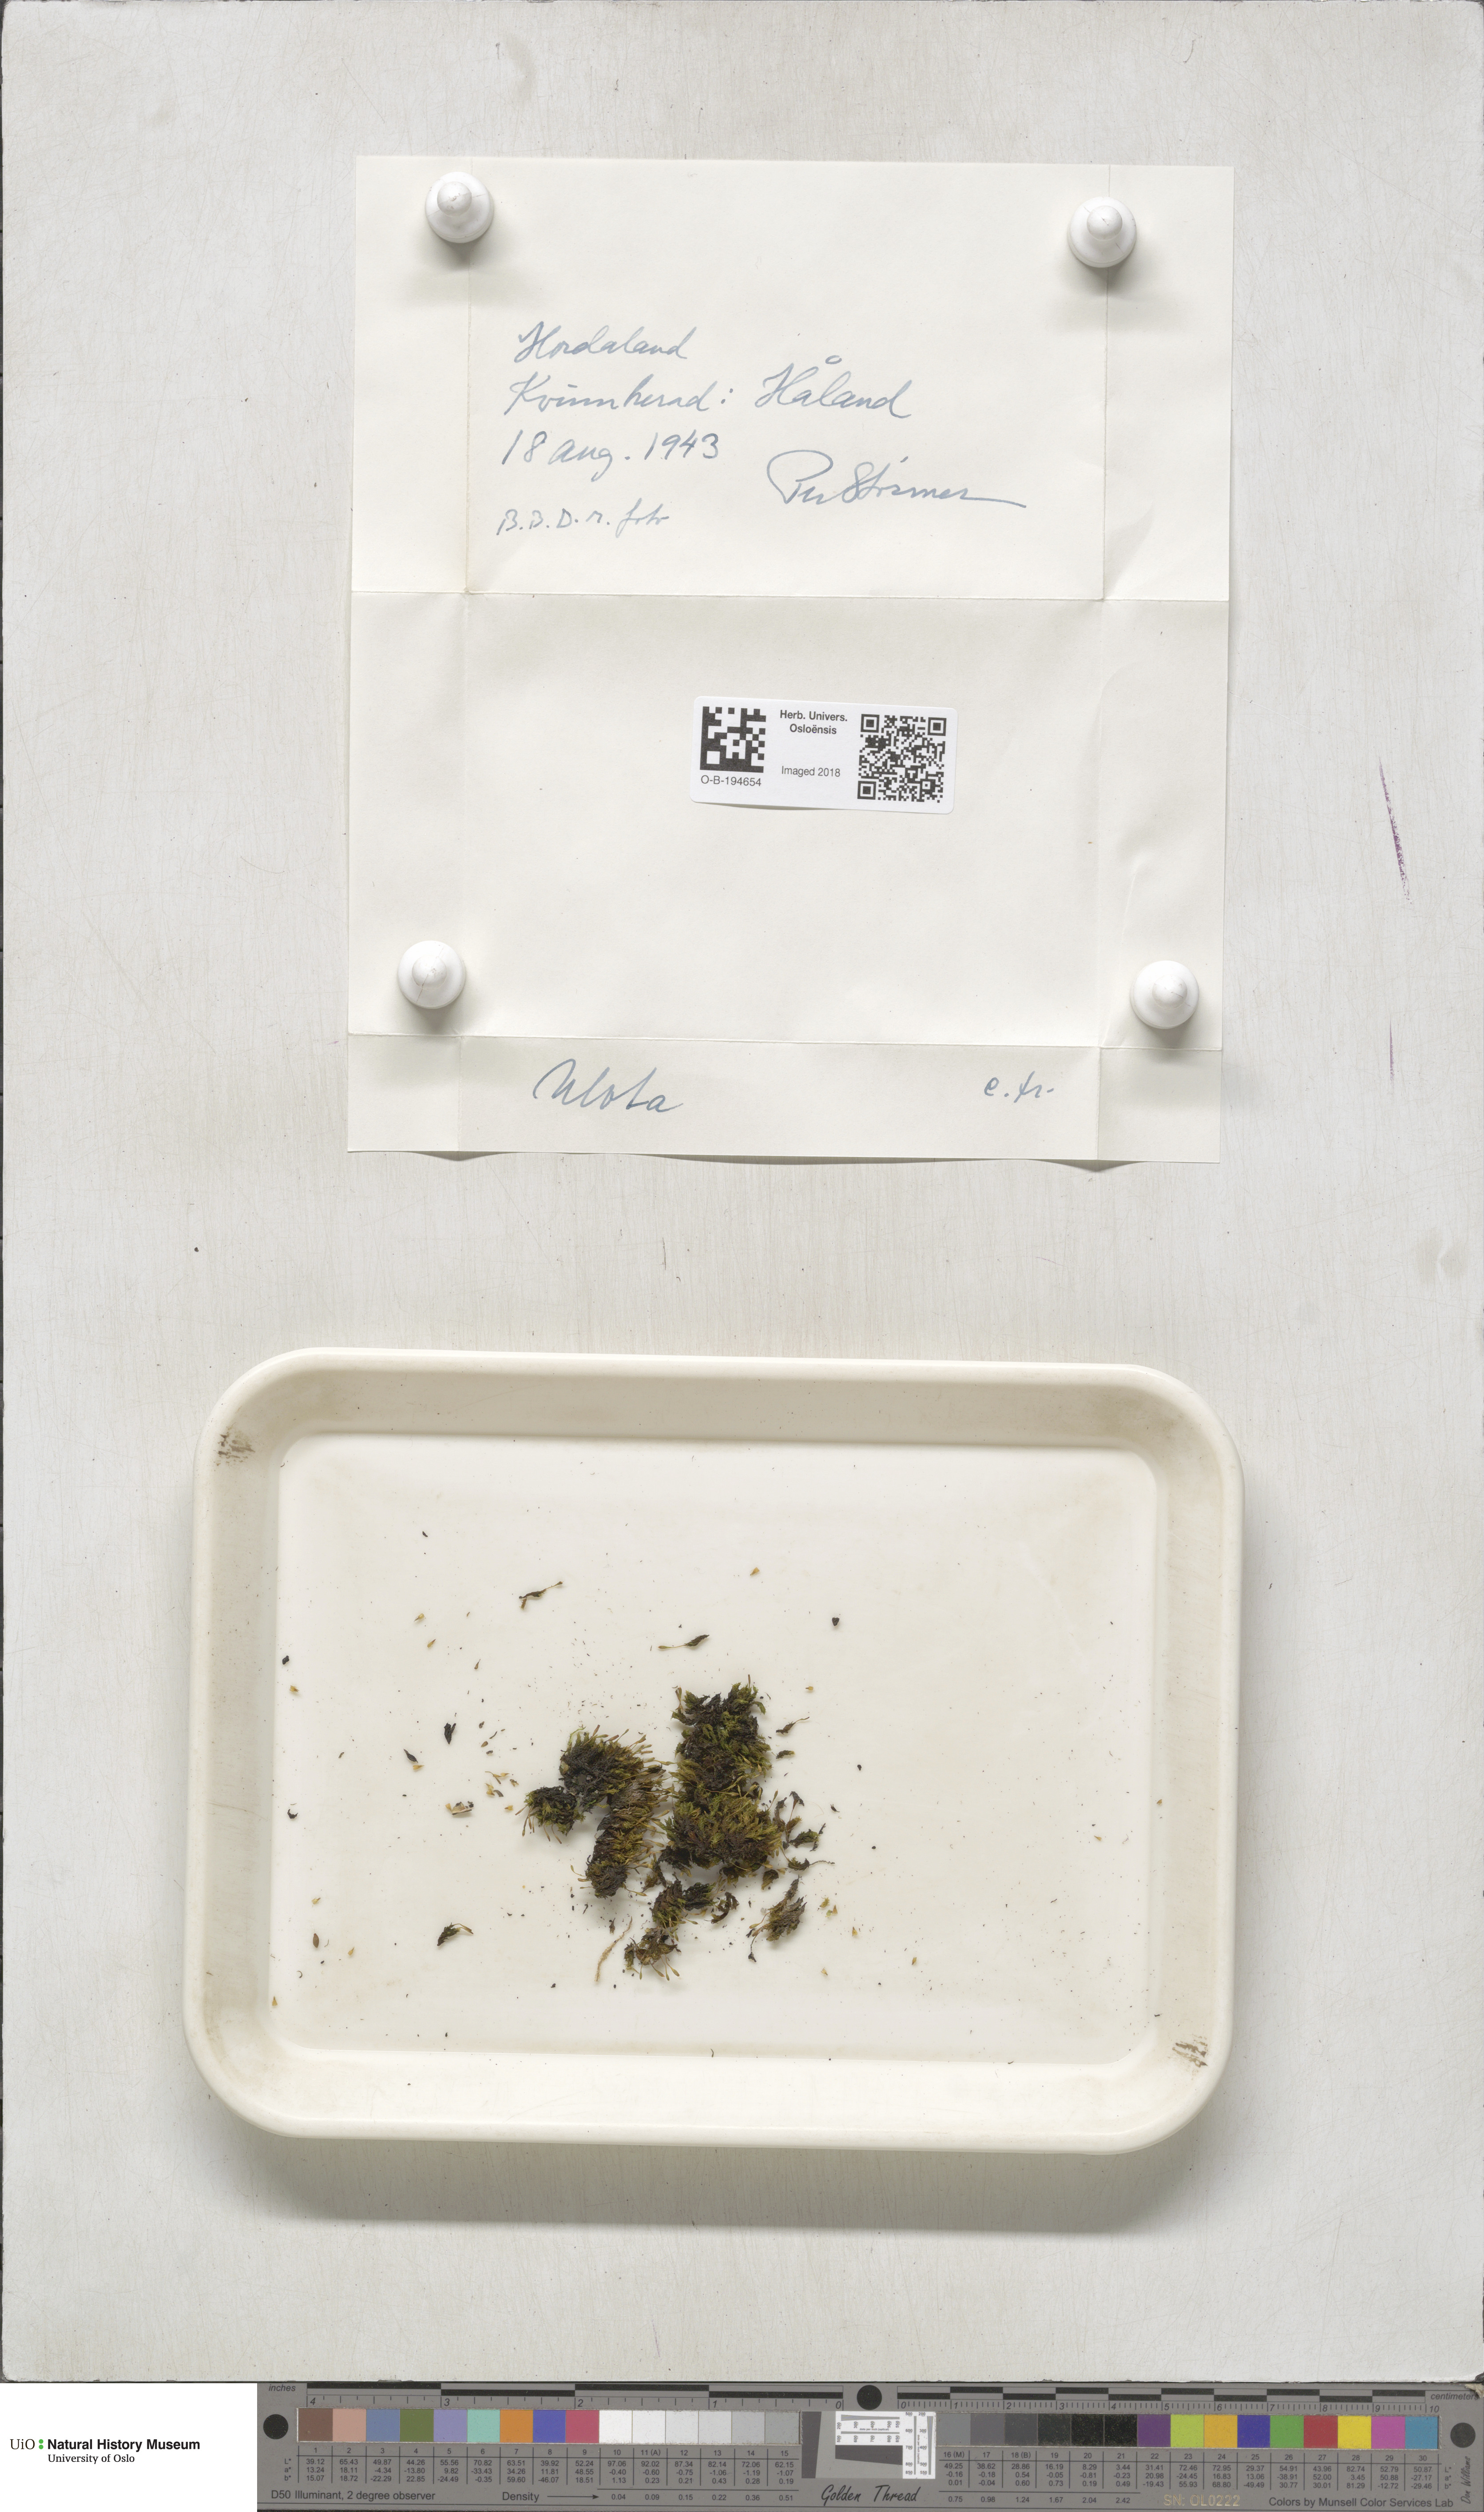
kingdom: Plantae
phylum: Bryophyta
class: Bryopsida
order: Orthotrichales
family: Orthotrichaceae
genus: Ulota
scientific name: Ulota
